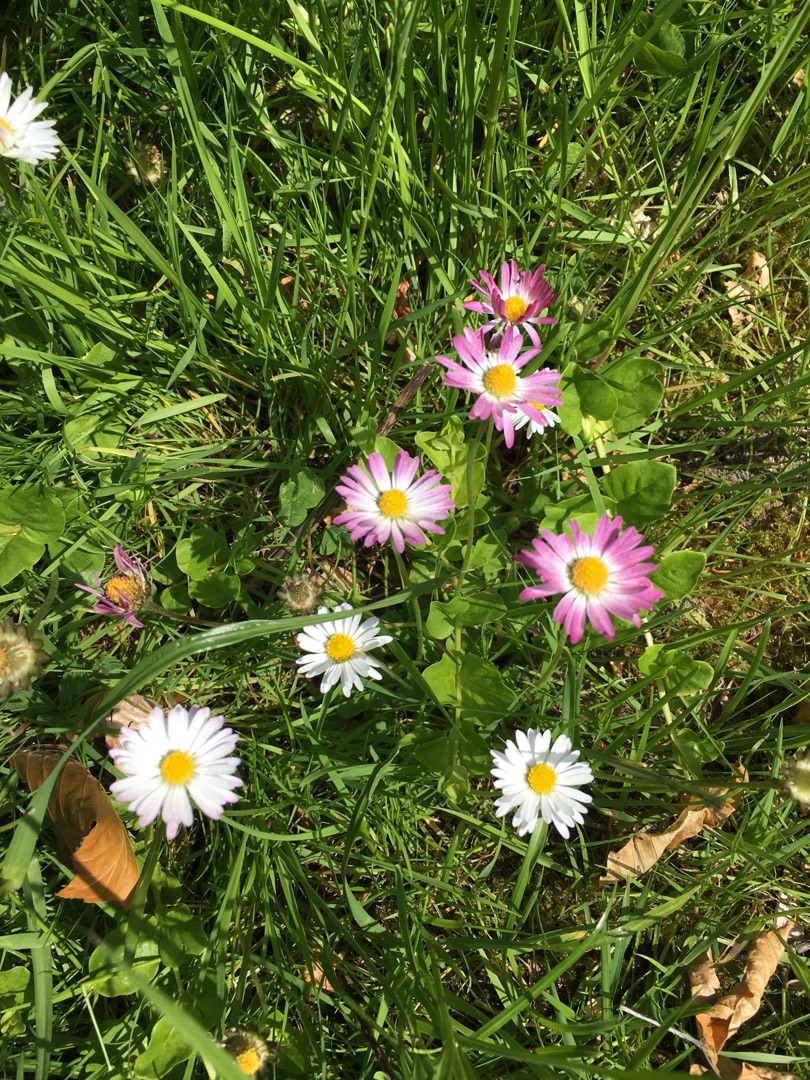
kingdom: Plantae
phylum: Tracheophyta
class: Magnoliopsida
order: Asterales
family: Asteraceae
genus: Bellis
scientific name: Bellis perennis
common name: Tusindfryd
